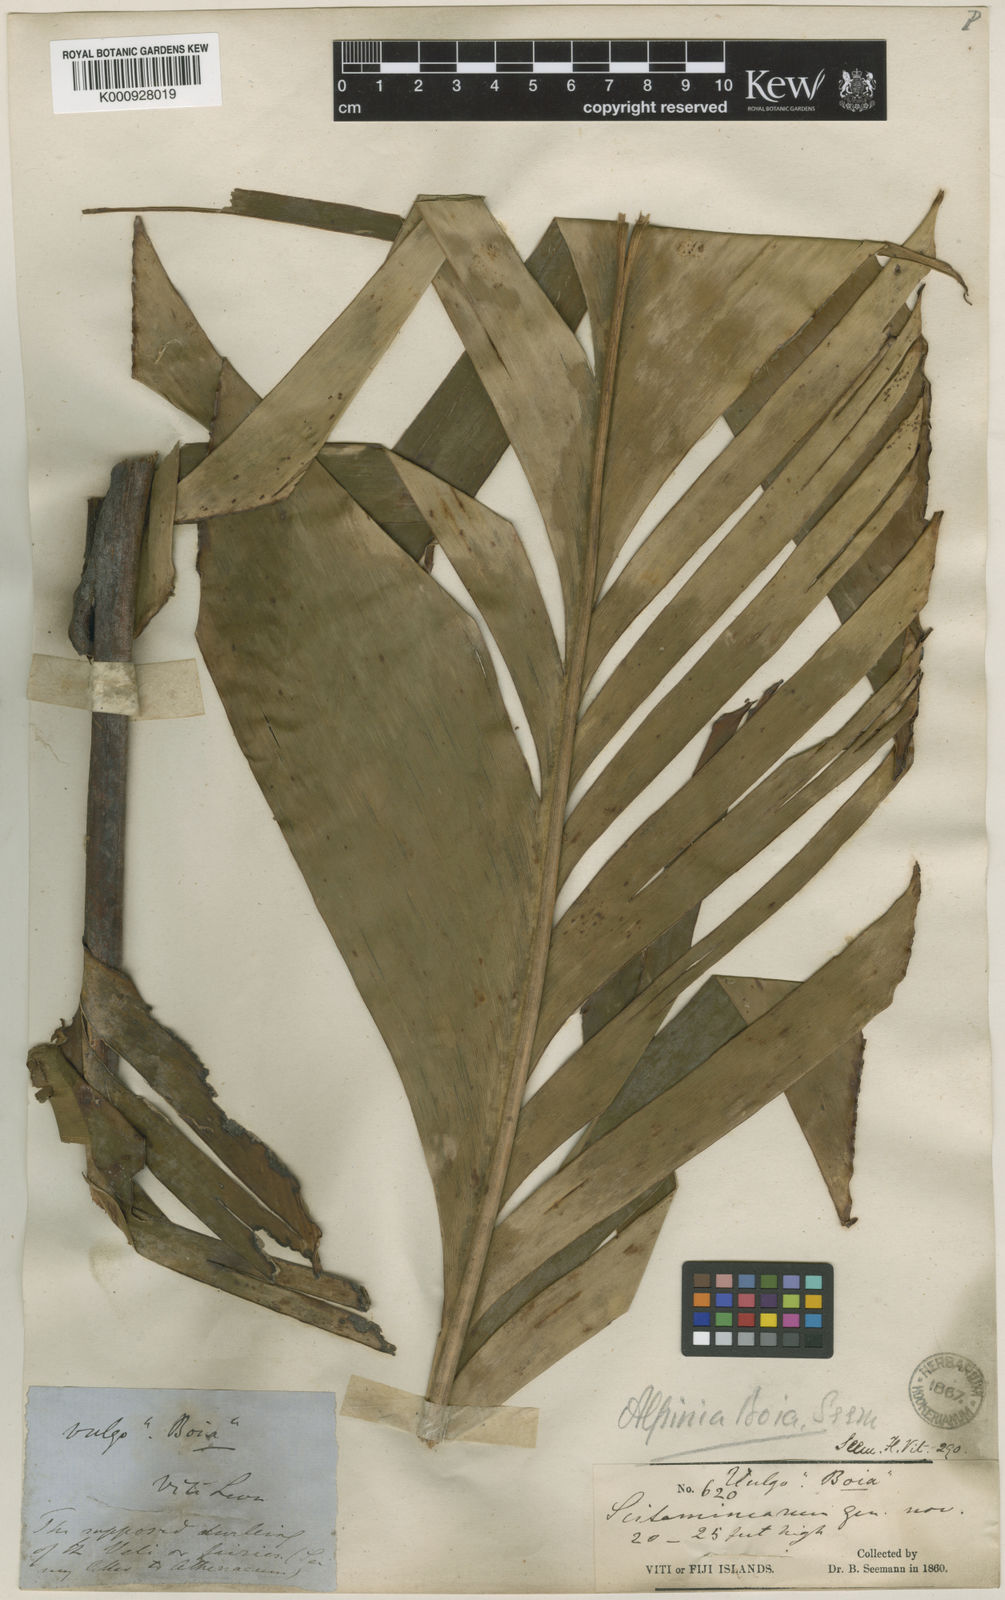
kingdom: Plantae
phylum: Tracheophyta
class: Liliopsida
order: Zingiberales
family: Zingiberaceae
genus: Alpinia
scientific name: Alpinia boia
